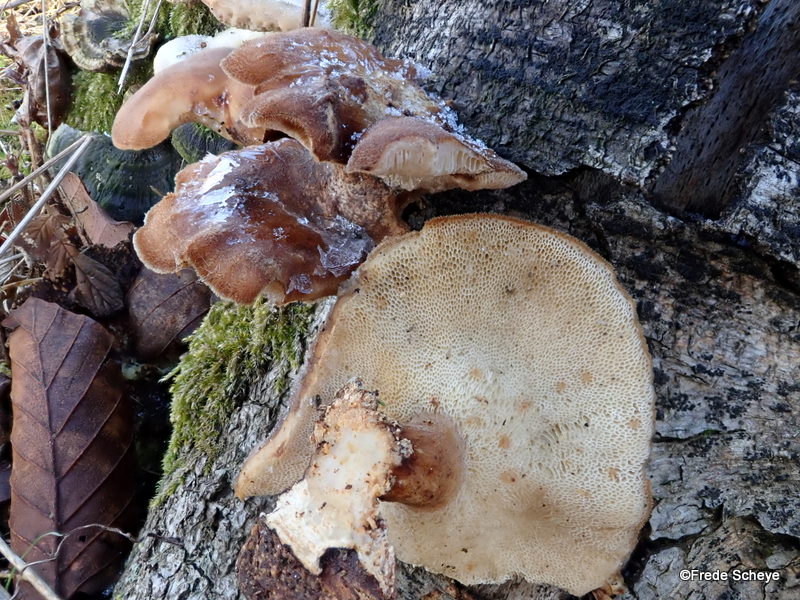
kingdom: Fungi
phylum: Basidiomycota
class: Agaricomycetes
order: Polyporales
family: Polyporaceae
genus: Lentinus
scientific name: Lentinus brumalis
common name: vinter-stilkporesvamp
